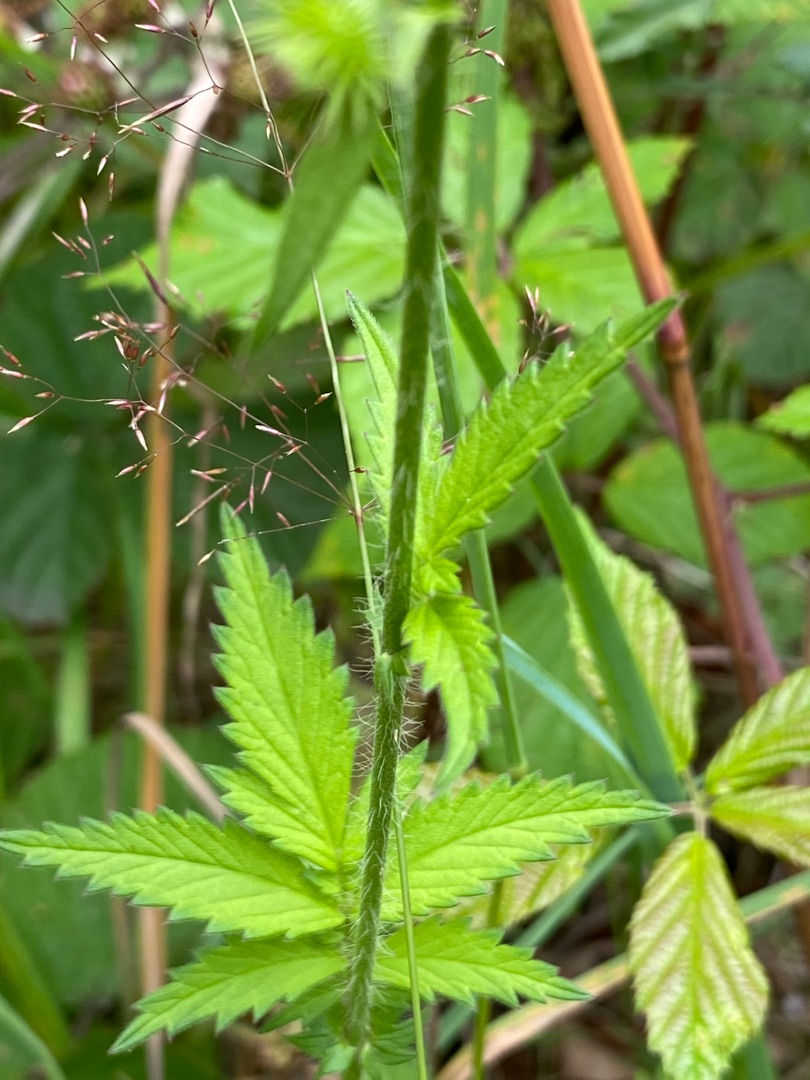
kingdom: Plantae
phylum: Tracheophyta
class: Magnoliopsida
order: Rosales
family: Rosaceae
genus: Agrimonia
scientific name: Agrimonia procera
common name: Vellugtende agermåne
